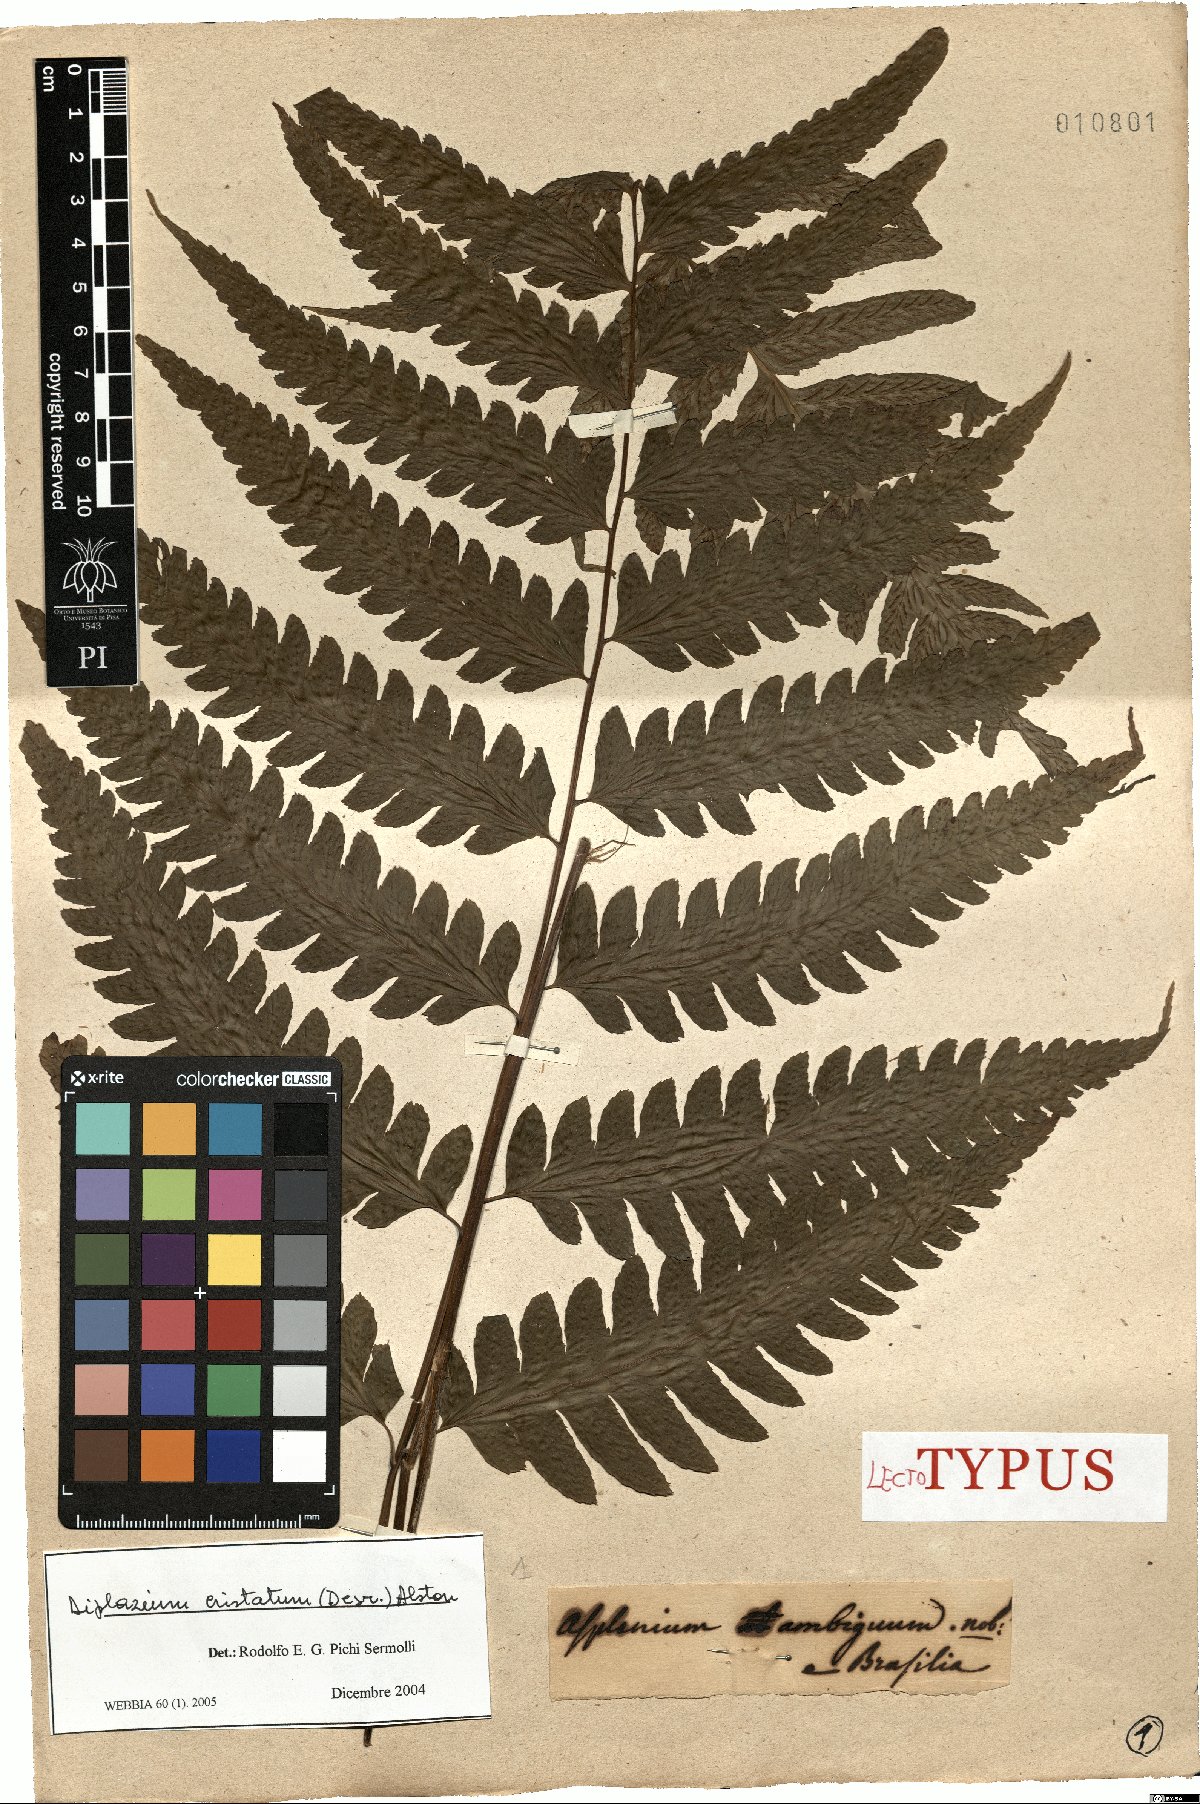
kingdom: Plantae
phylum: Tracheophyta
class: Polypodiopsida
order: Polypodiales
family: Athyriaceae
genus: Diplazium
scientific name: Diplazium cristatum
